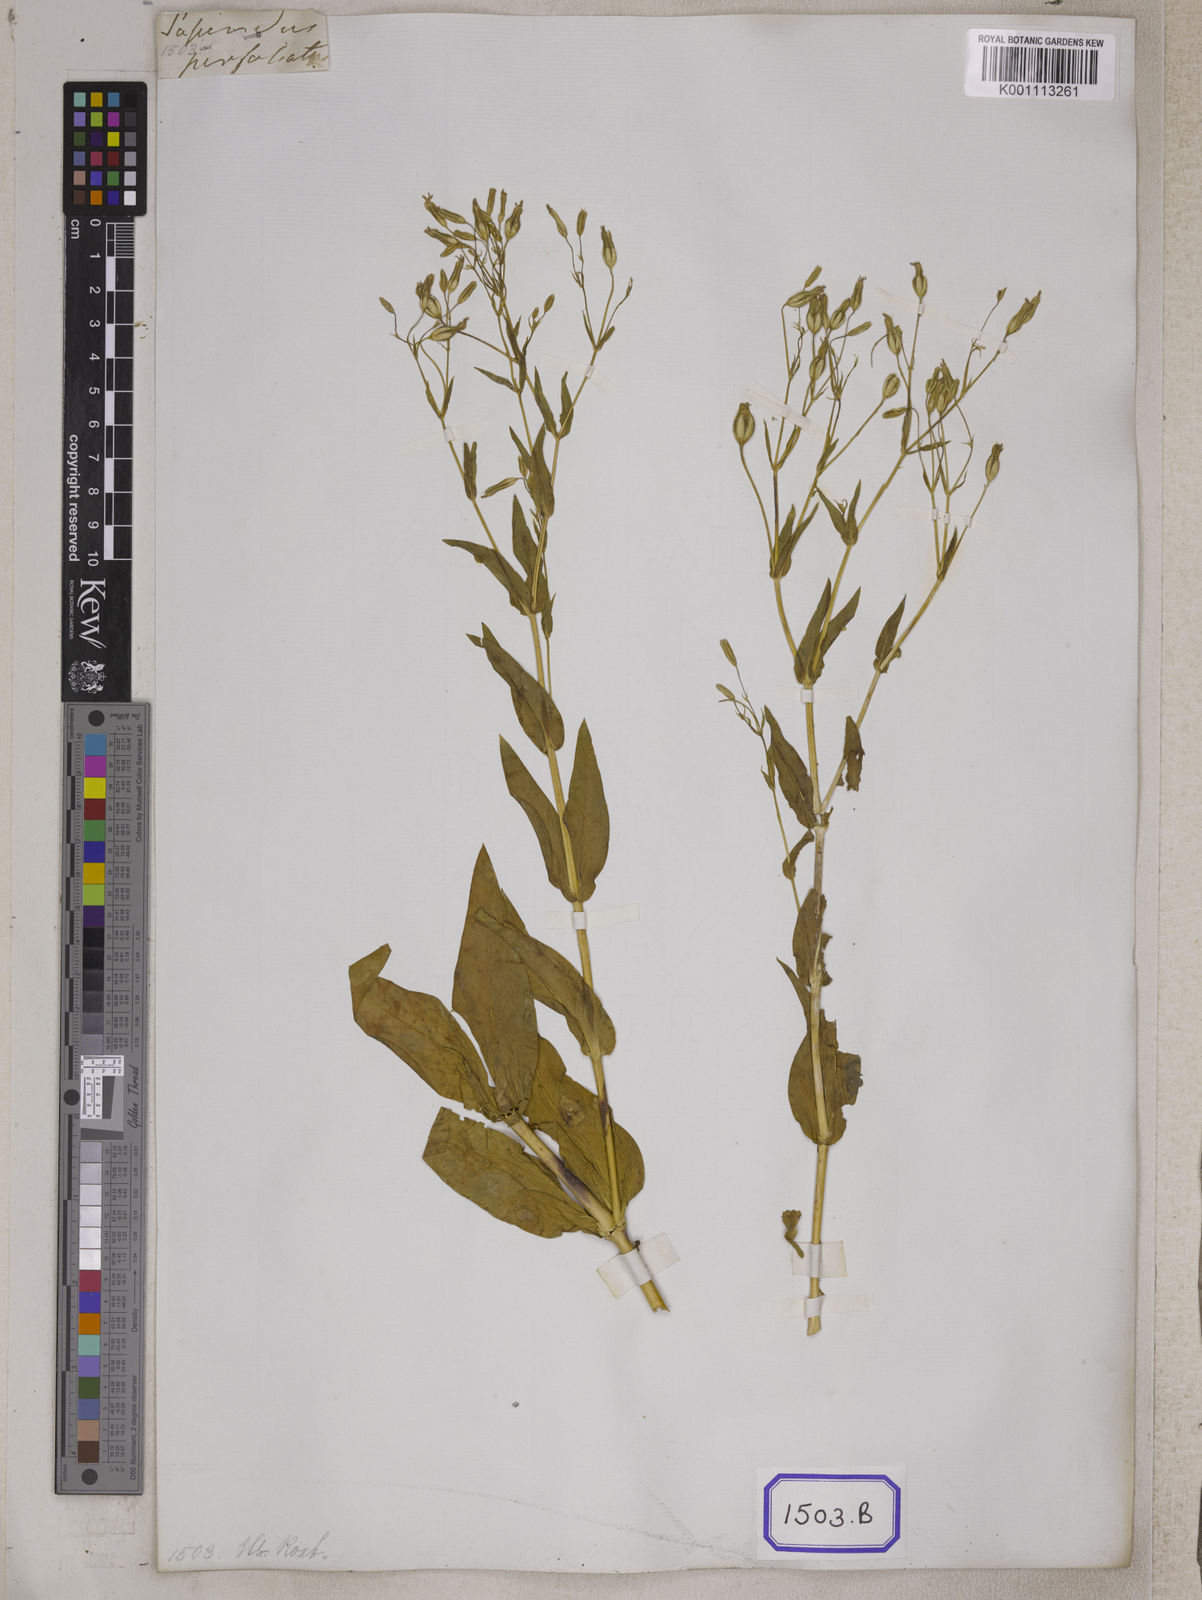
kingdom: Plantae
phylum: Tracheophyta
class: Magnoliopsida
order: Caryophyllales
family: Caryophyllaceae
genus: Gypsophila
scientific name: Gypsophila vaccaria
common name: Cow soapwort
